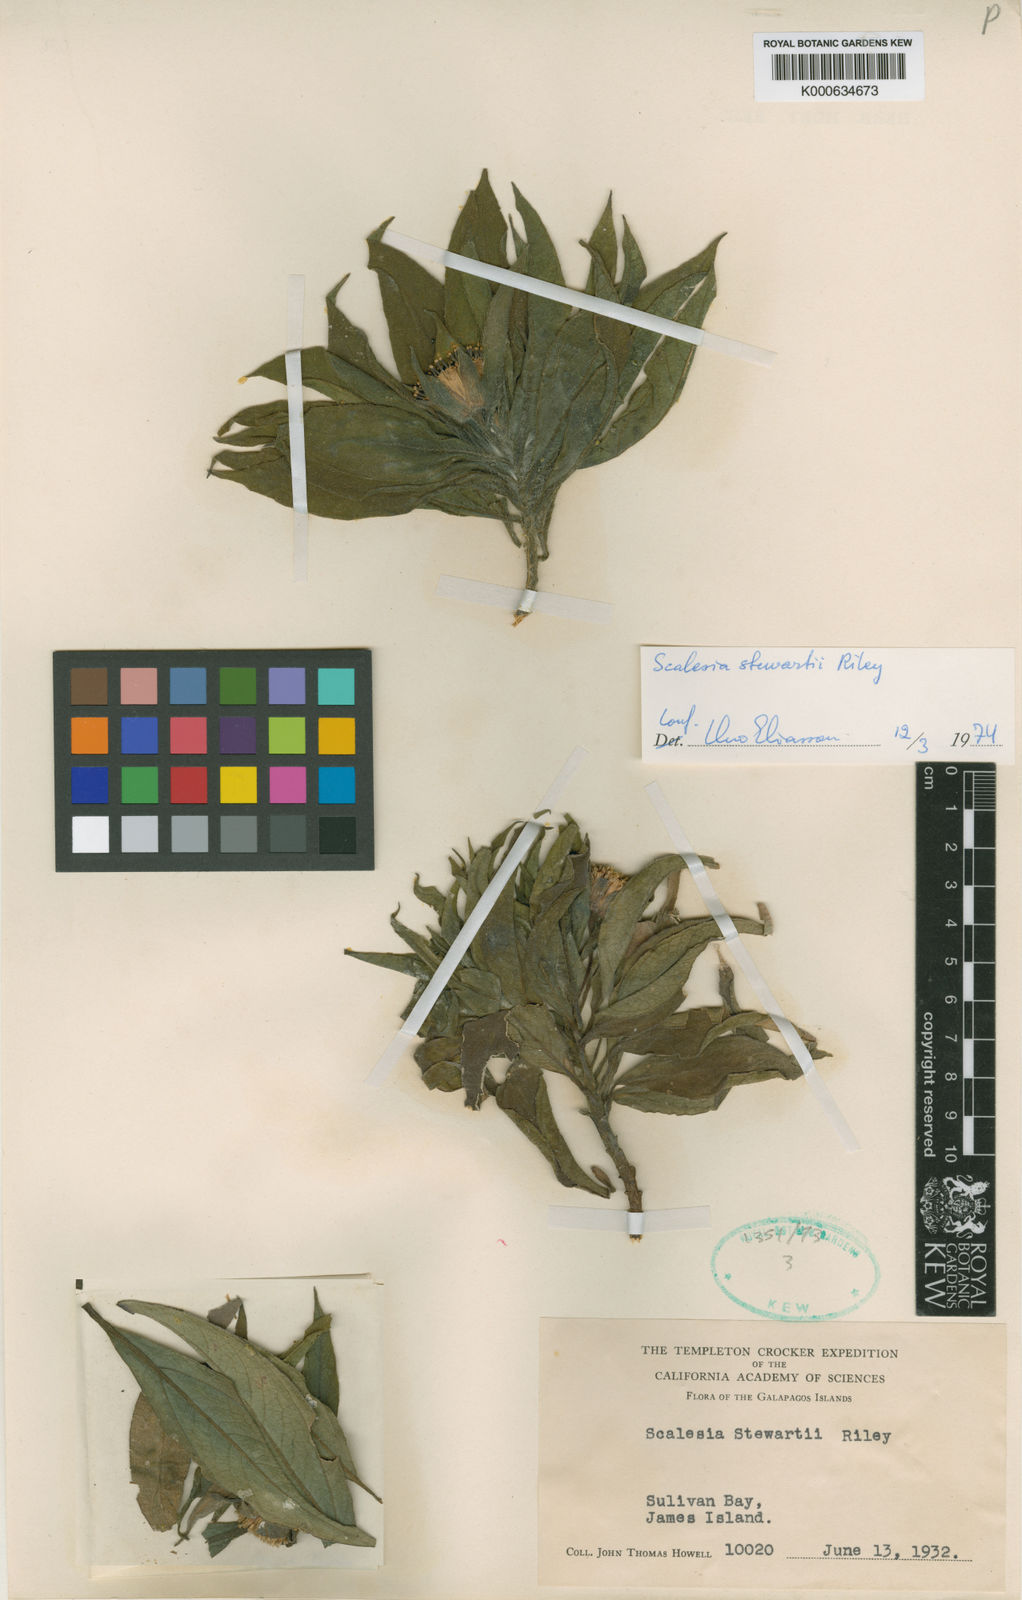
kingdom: Plantae
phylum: Tracheophyta
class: Magnoliopsida
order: Asterales
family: Asteraceae
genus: Scalesia
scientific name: Scalesia stewartii
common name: Stewart's scalesia
